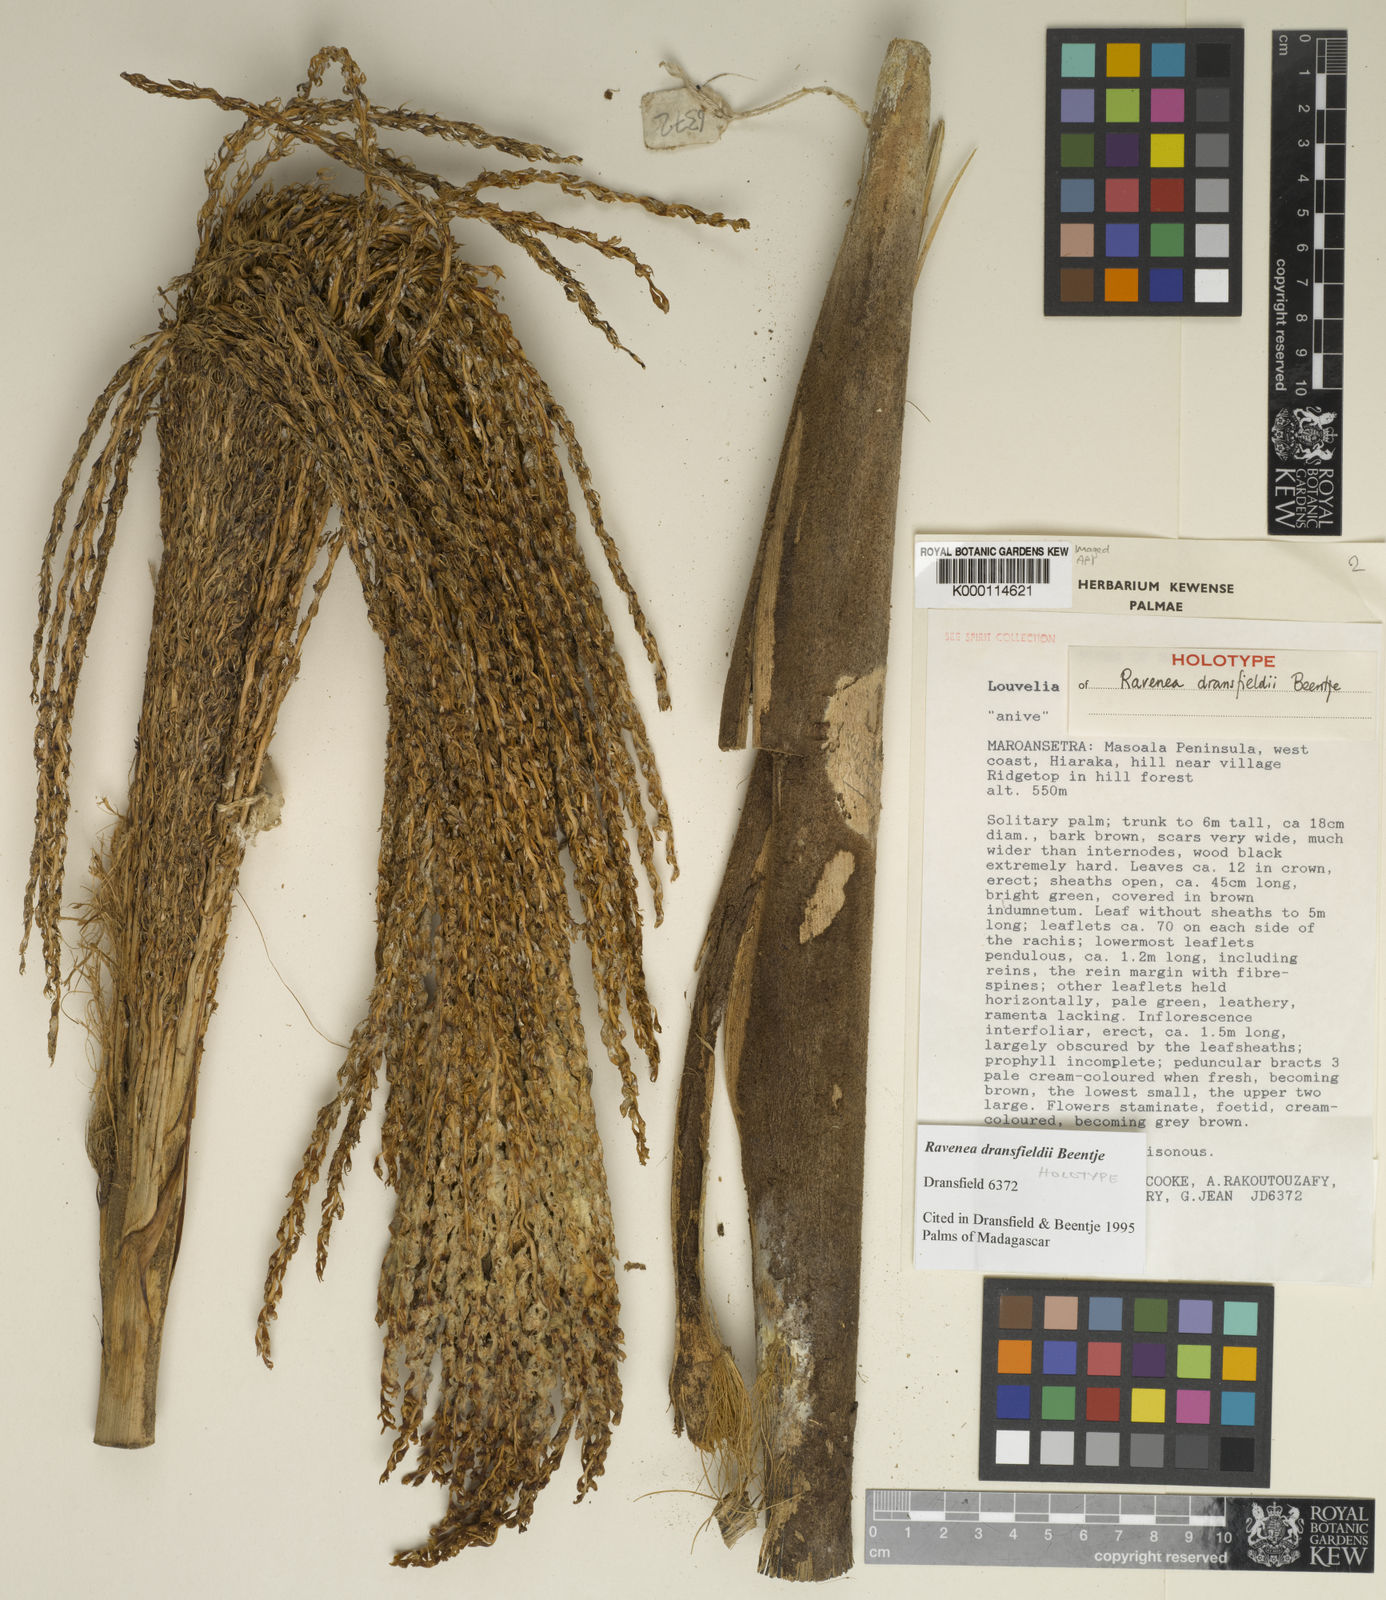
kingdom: Plantae
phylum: Tracheophyta
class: Liliopsida
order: Arecales
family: Arecaceae
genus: Ravenea
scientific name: Ravenea dransfieldii
